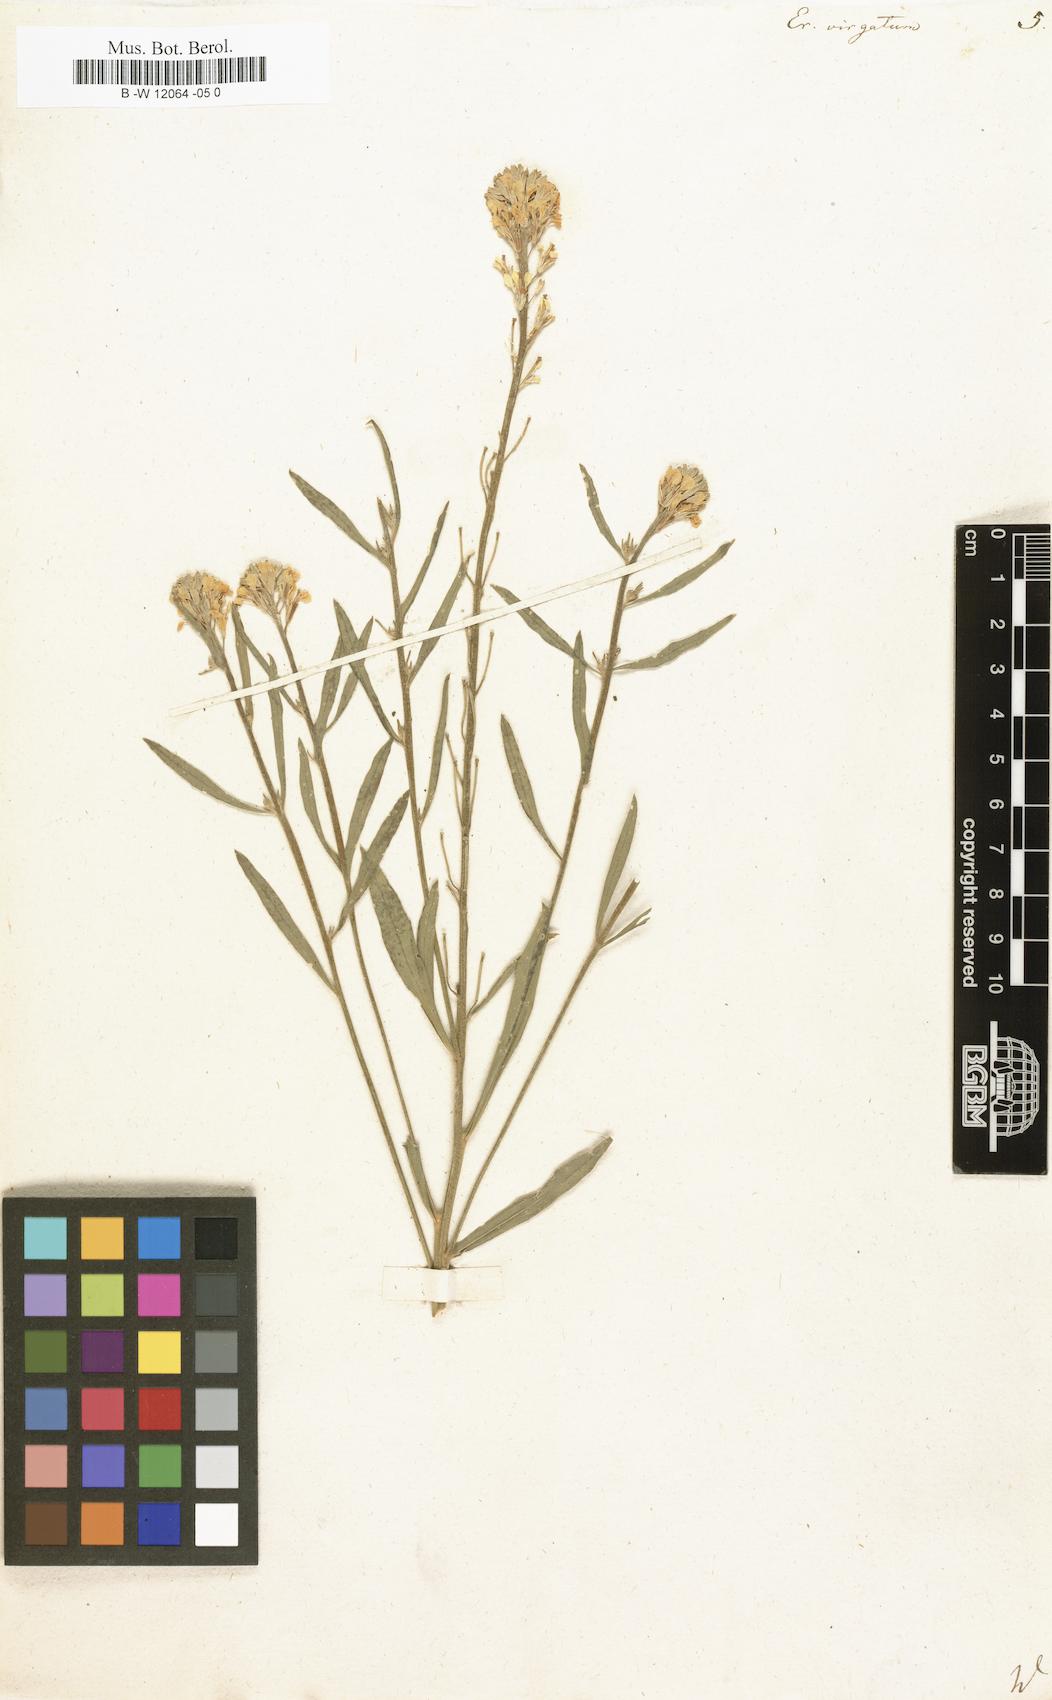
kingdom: Plantae
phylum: Tracheophyta
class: Magnoliopsida
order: Brassicales
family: Brassicaceae
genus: Erysimum
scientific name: Erysimum virgatum
